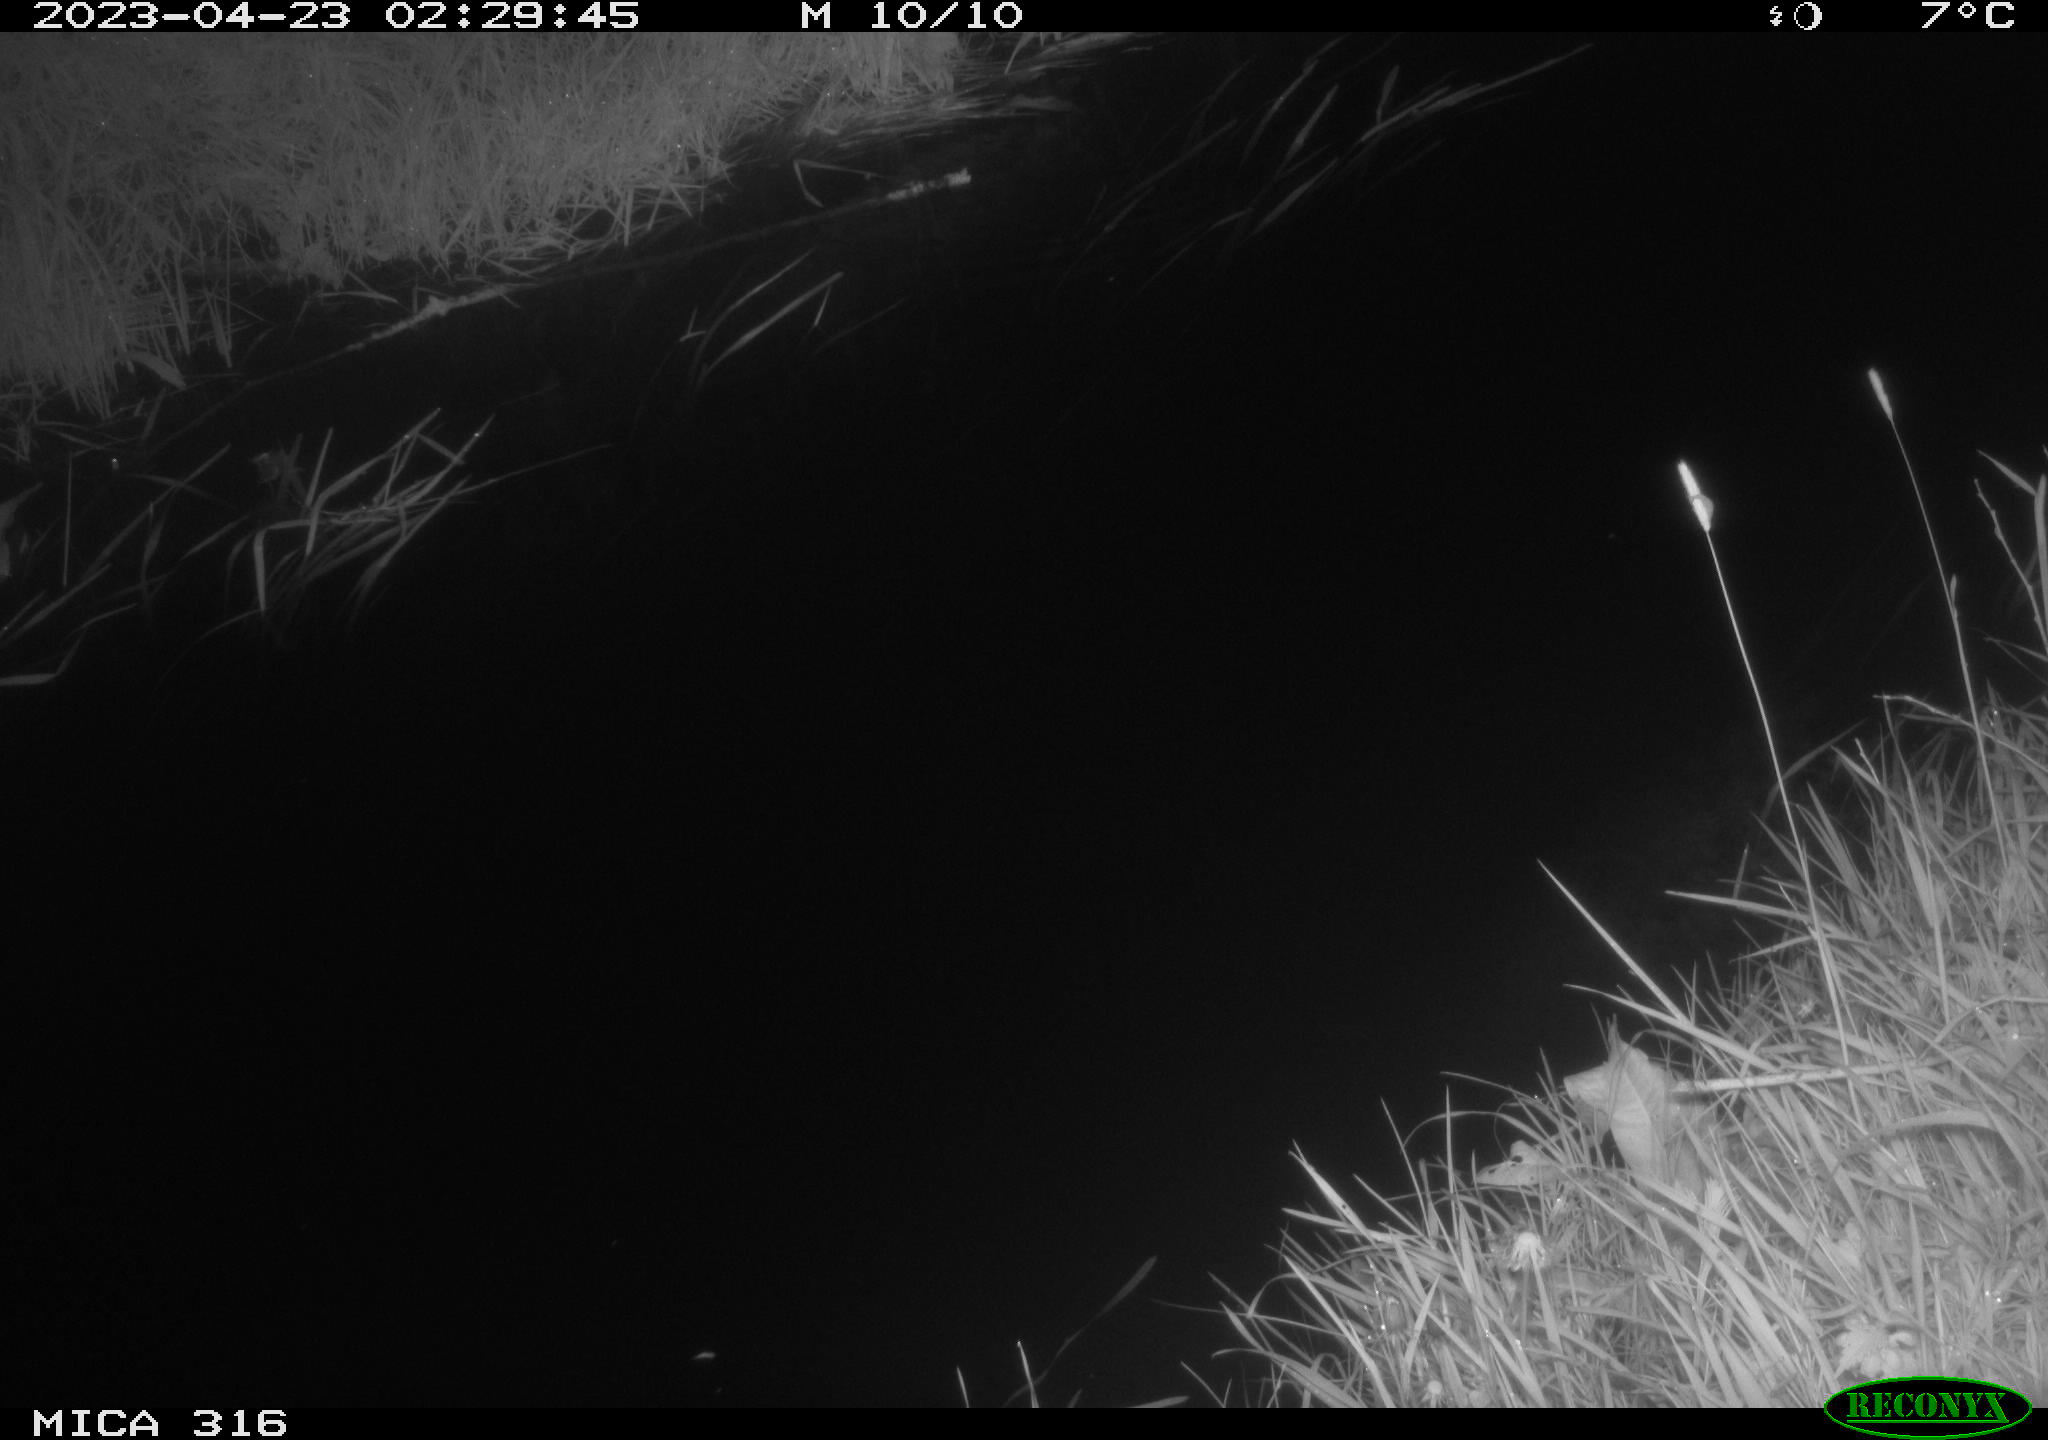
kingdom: Animalia
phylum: Chordata
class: Aves
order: Anseriformes
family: Anatidae
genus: Anas
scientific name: Anas
